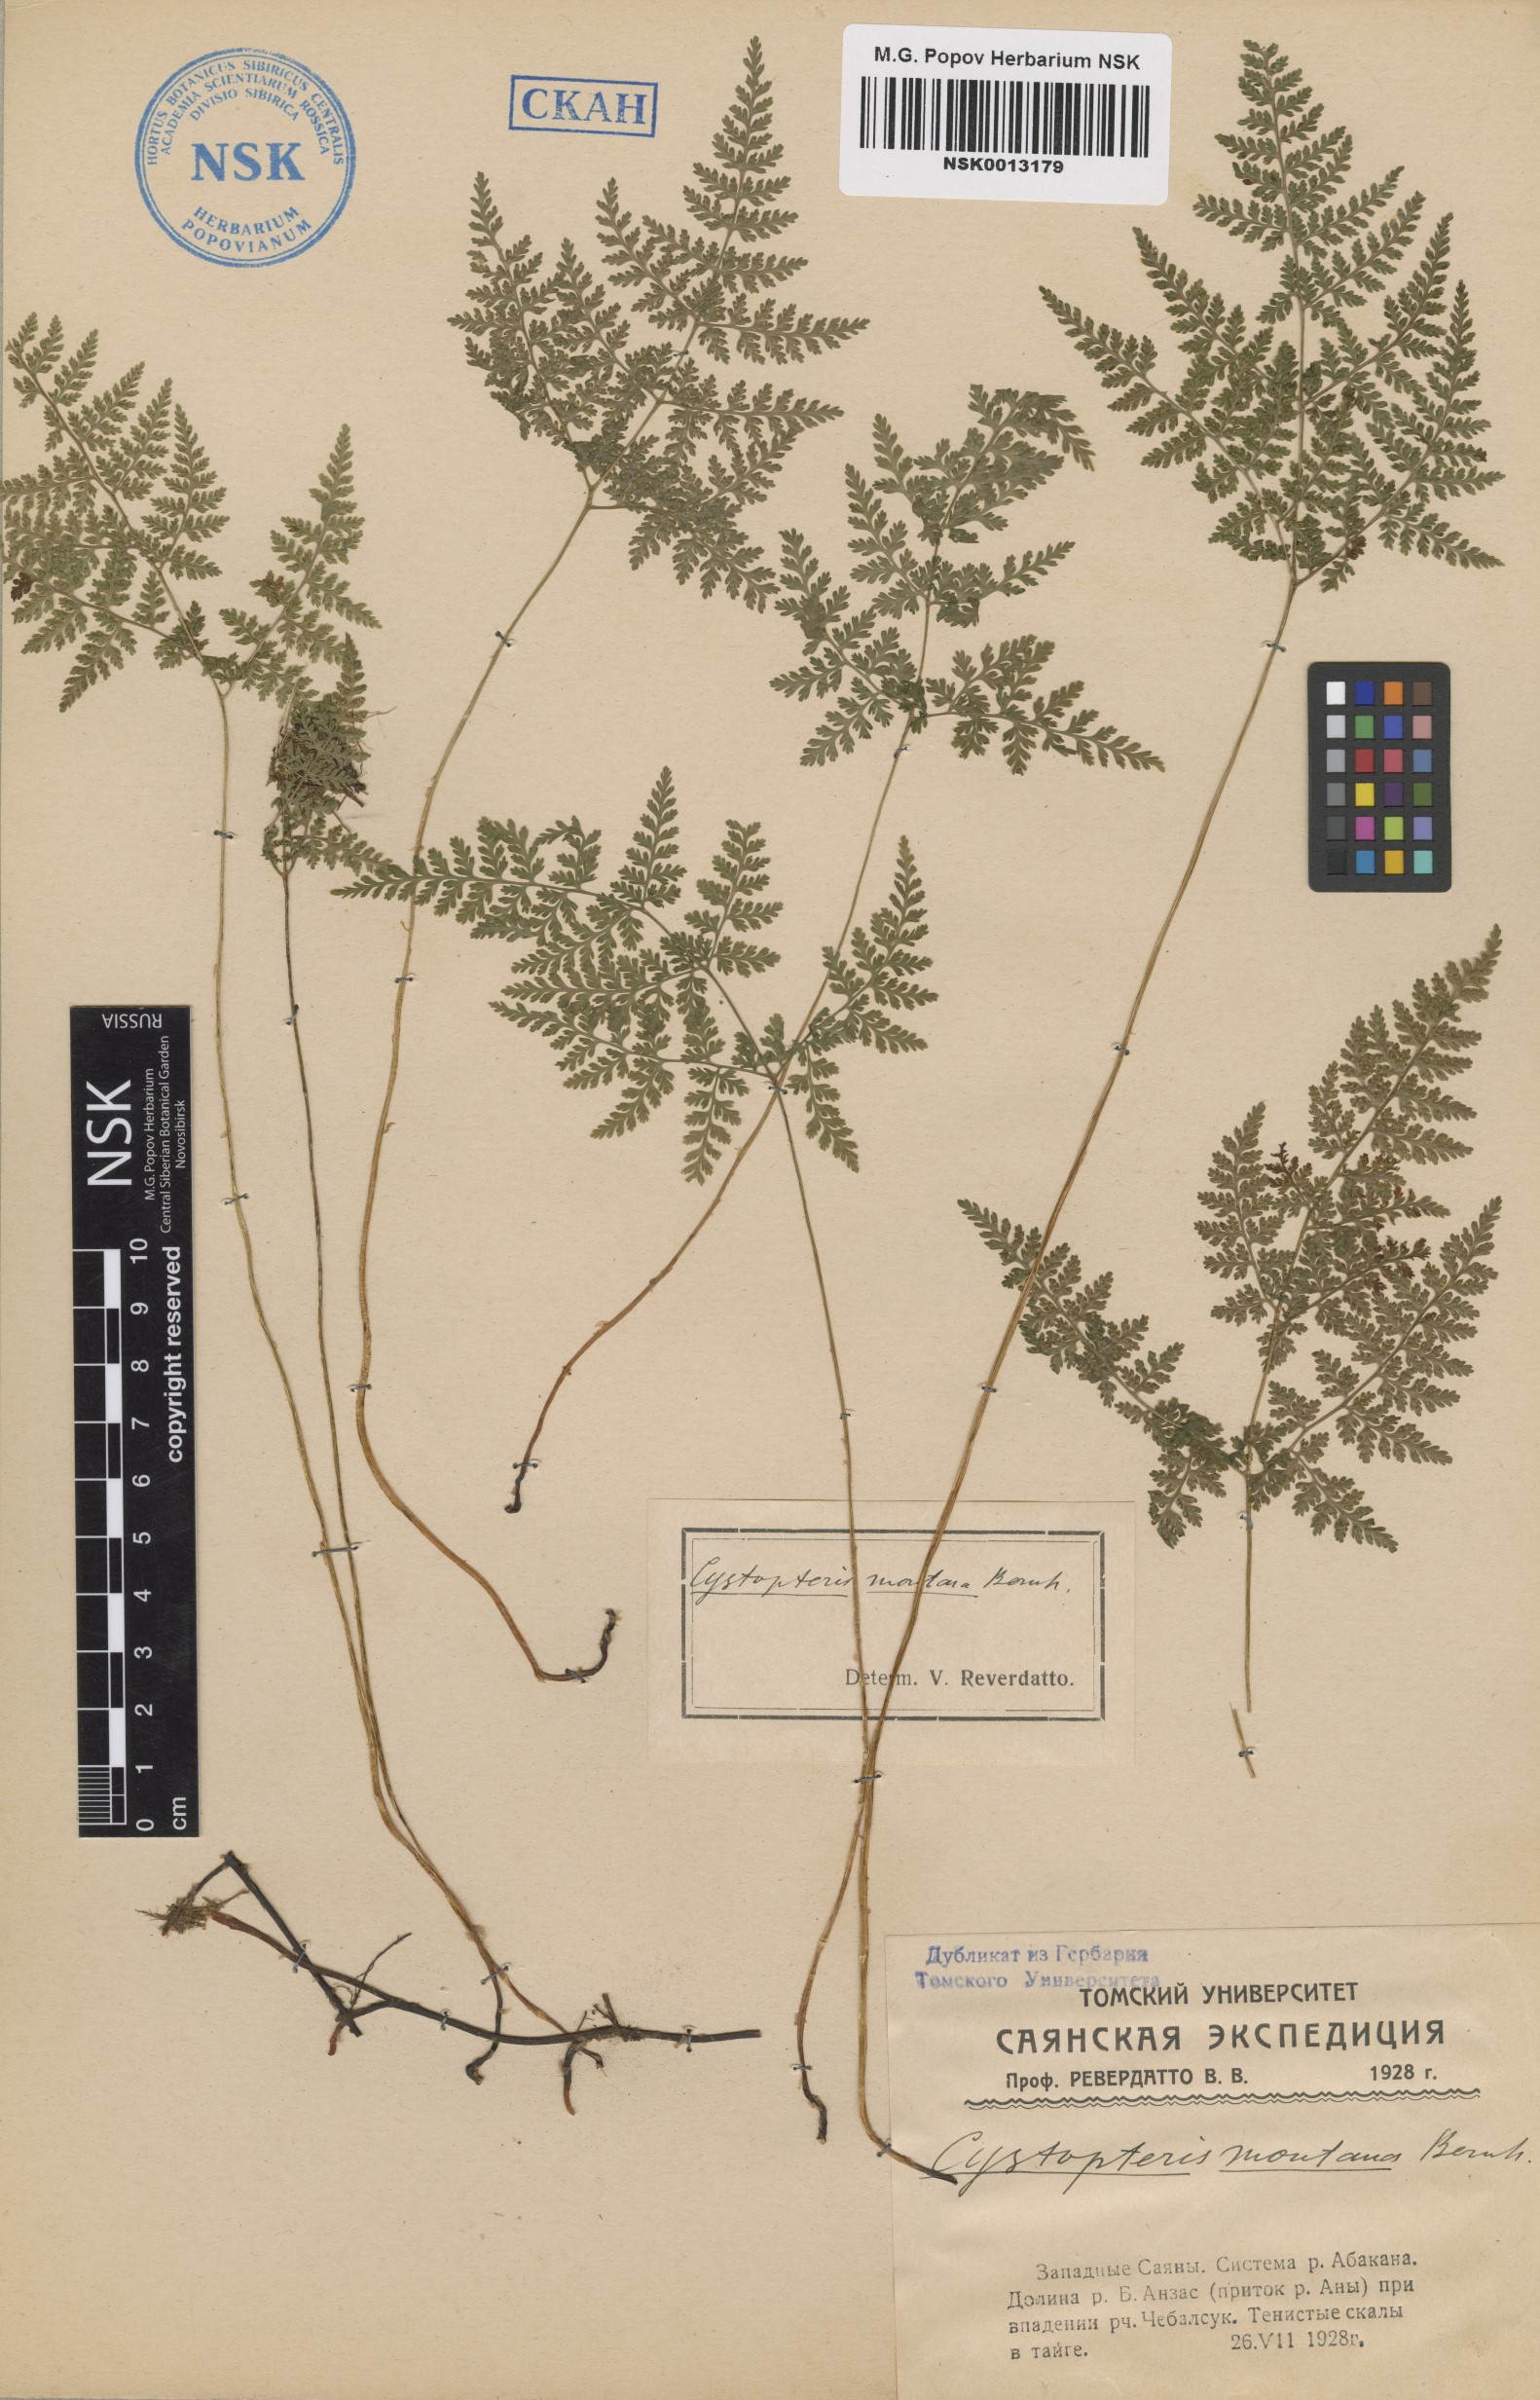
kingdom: Plantae
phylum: Tracheophyta
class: Polypodiopsida
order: Polypodiales
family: Cystopteridaceae
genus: Cystopteris
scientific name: Cystopteris montana
